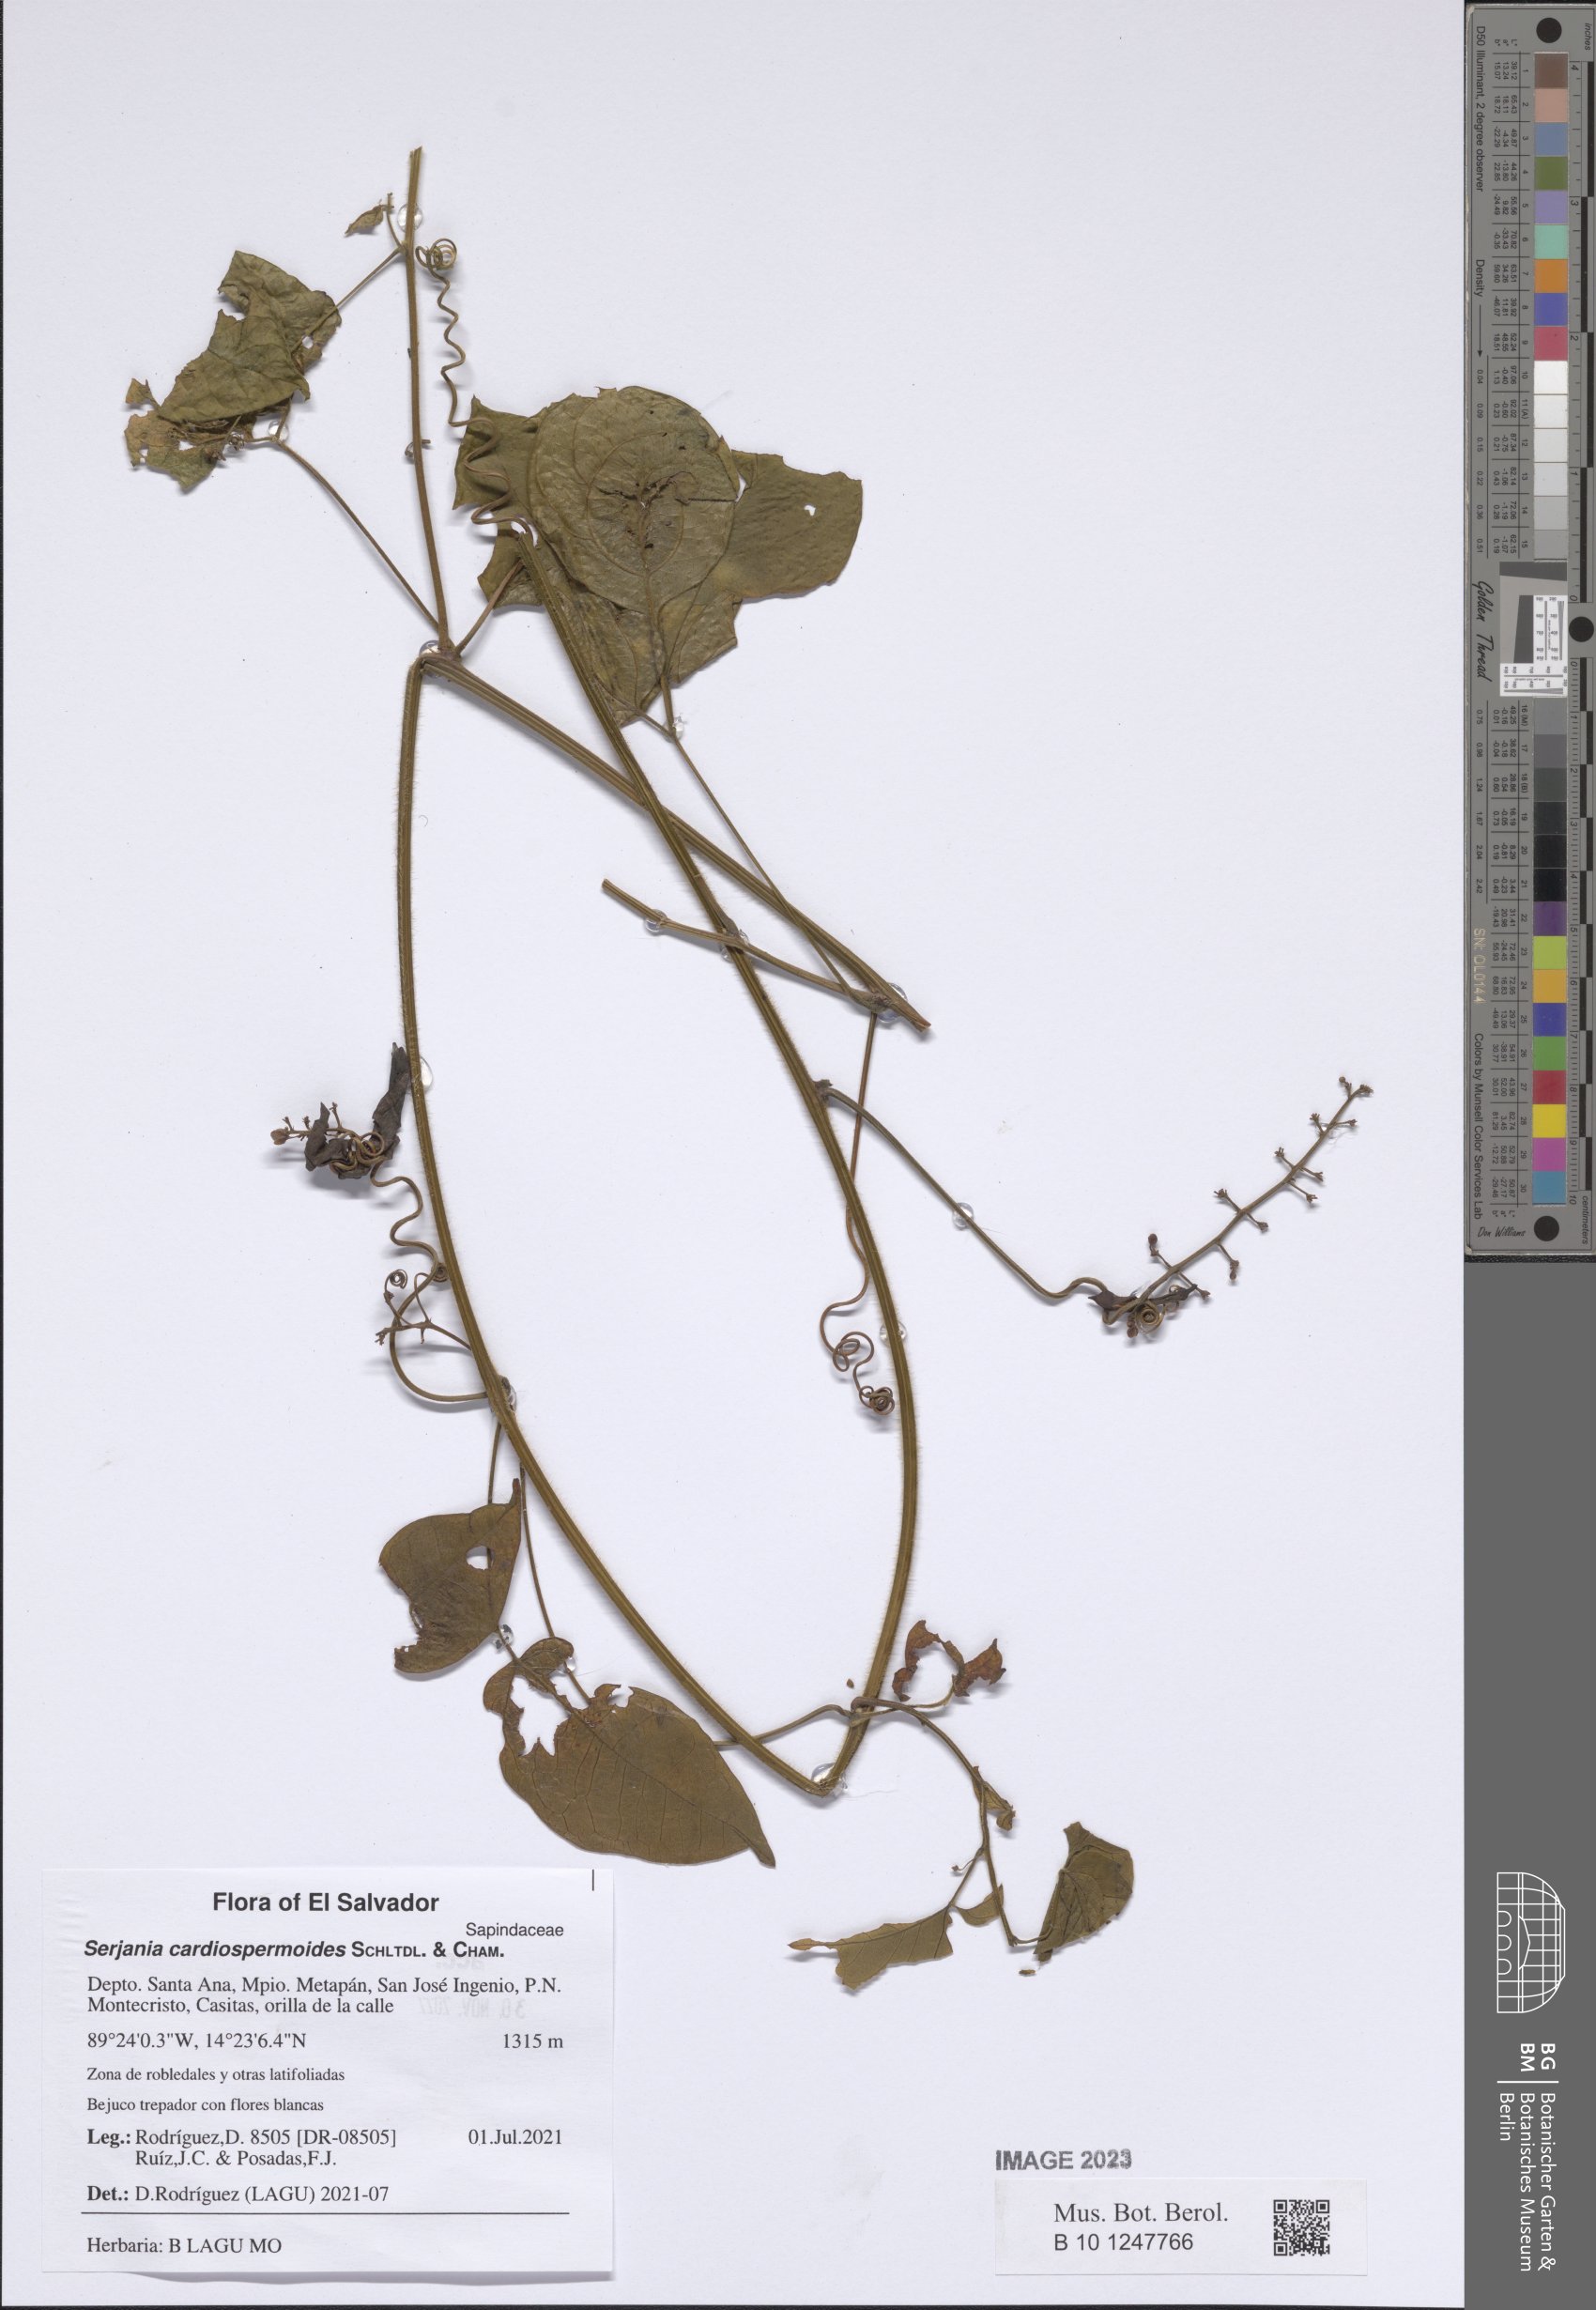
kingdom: Plantae
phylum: Tracheophyta
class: Magnoliopsida
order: Sapindales
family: Sapindaceae
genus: Serjania
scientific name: Serjania cardiospermoides
